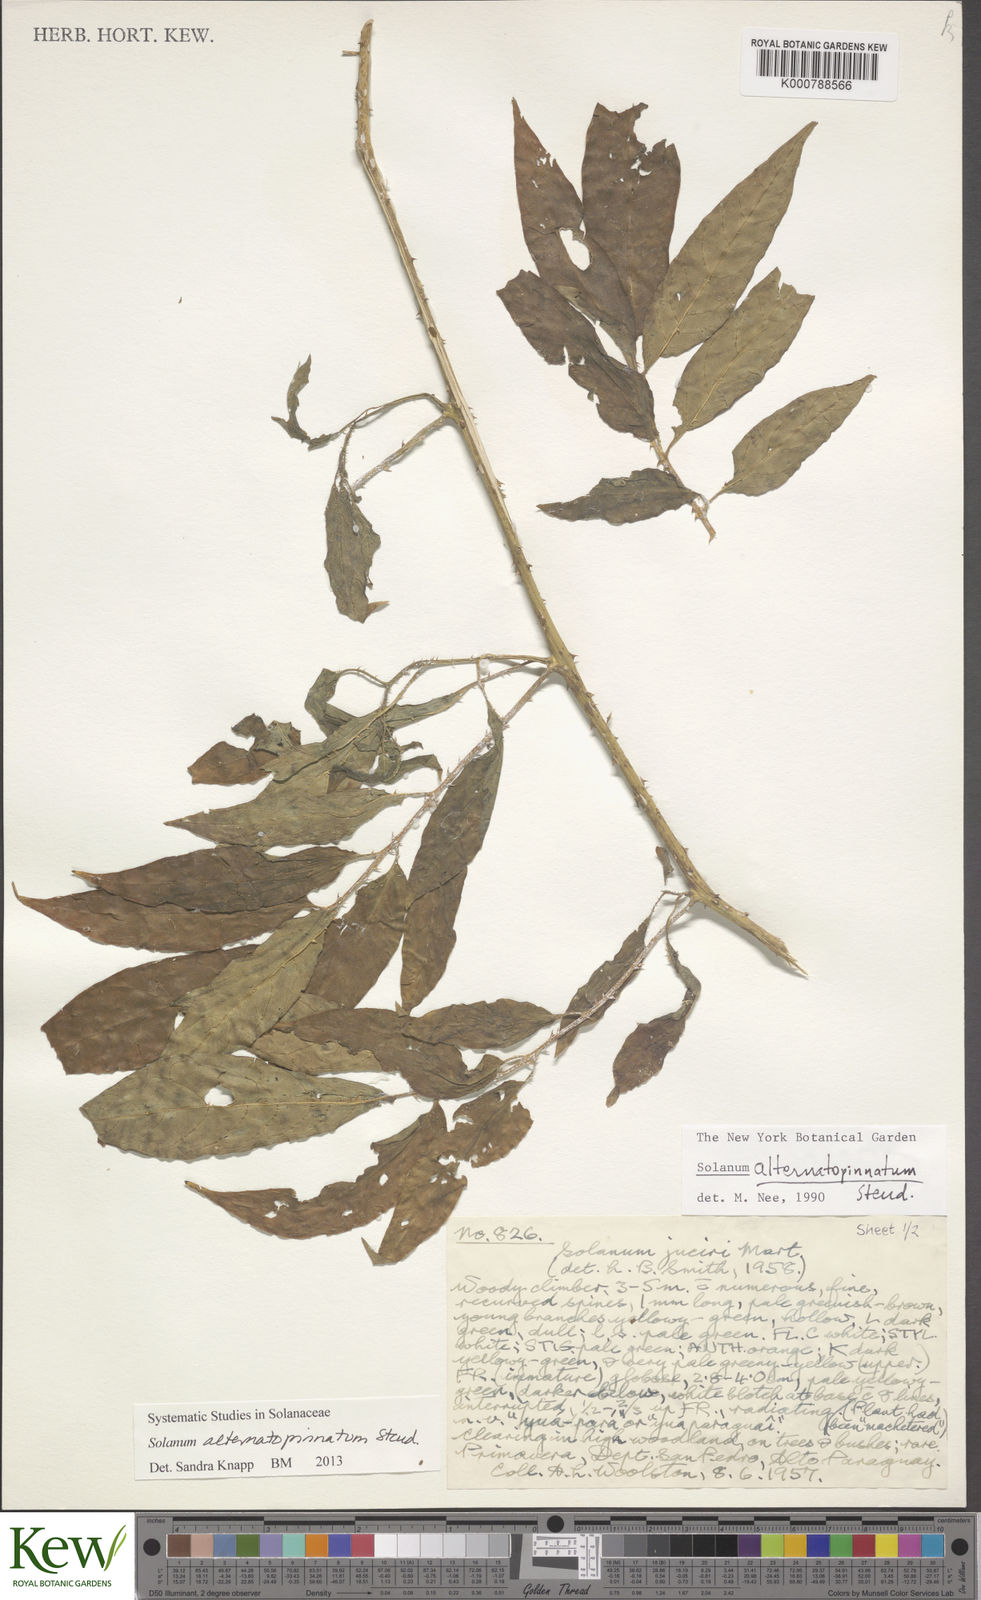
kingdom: Plantae
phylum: Tracheophyta
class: Magnoliopsida
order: Solanales
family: Solanaceae
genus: Solanum
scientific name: Solanum alternatopinnatum
